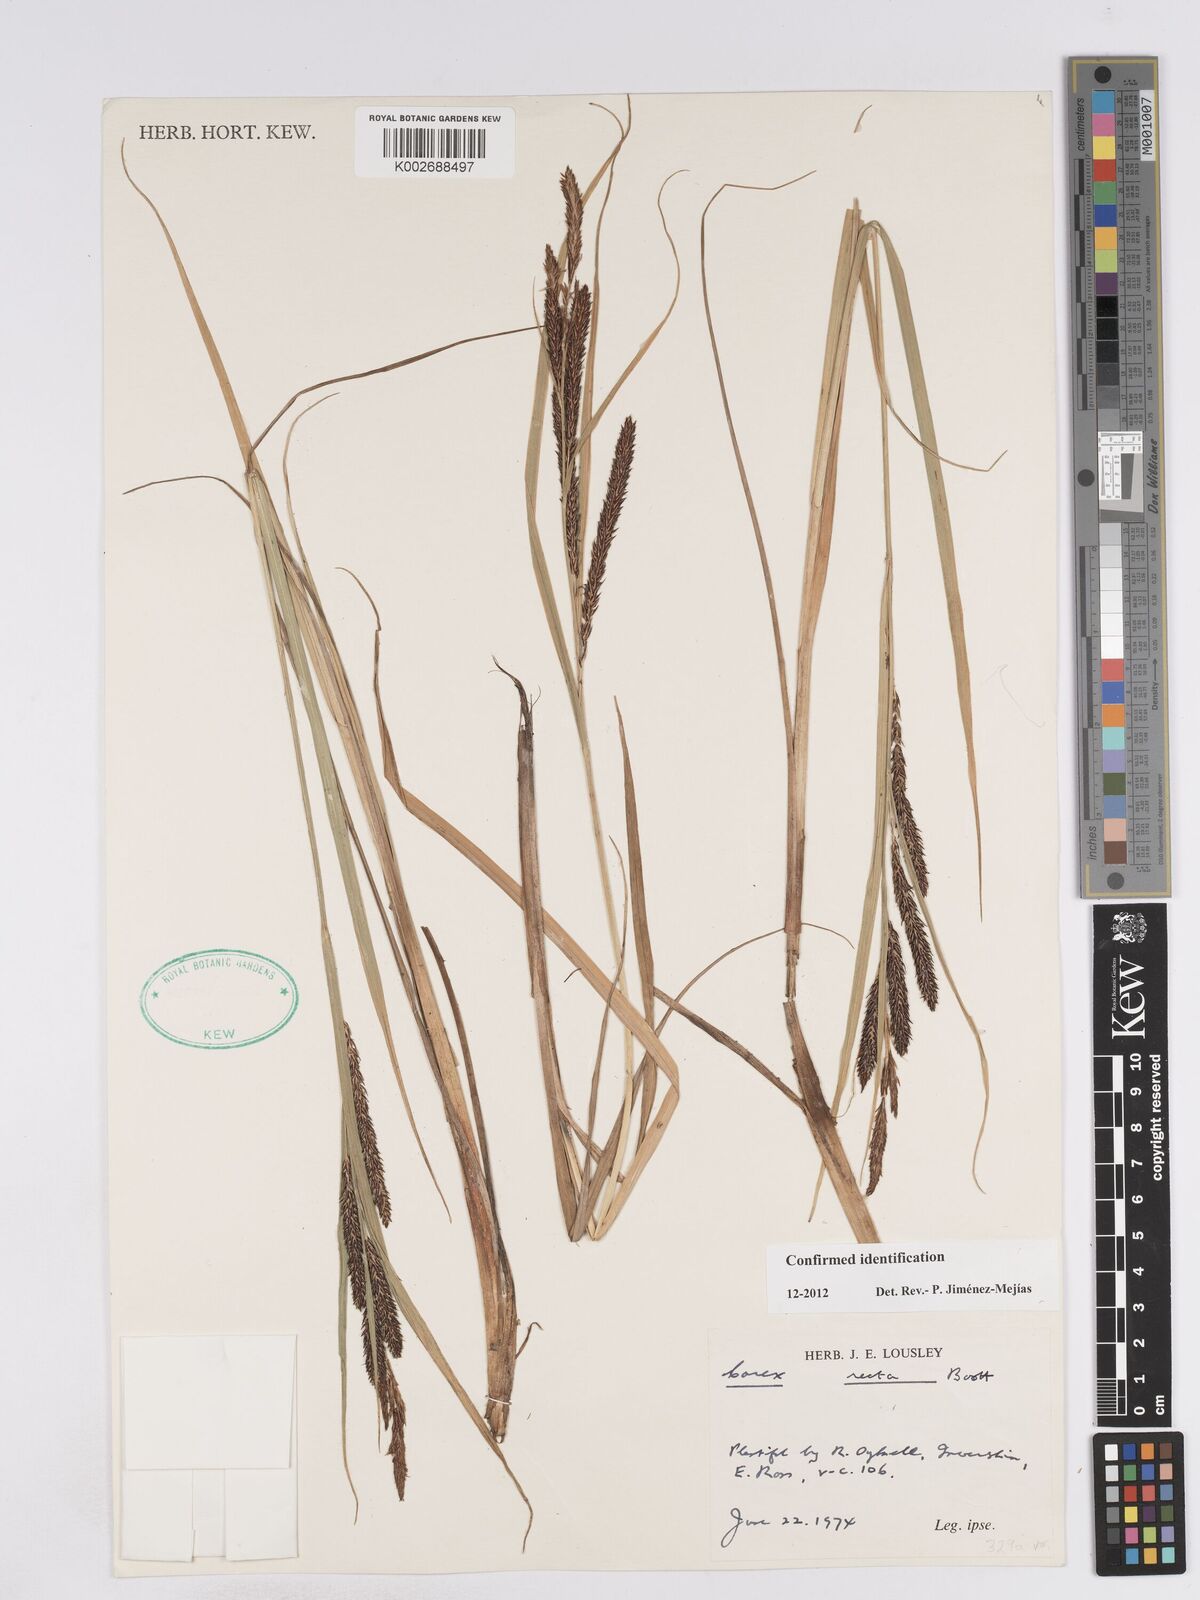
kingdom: Plantae
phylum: Tracheophyta
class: Liliopsida
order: Poales
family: Cyperaceae
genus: Carex
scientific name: Carex recta
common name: Estuarine sedge
